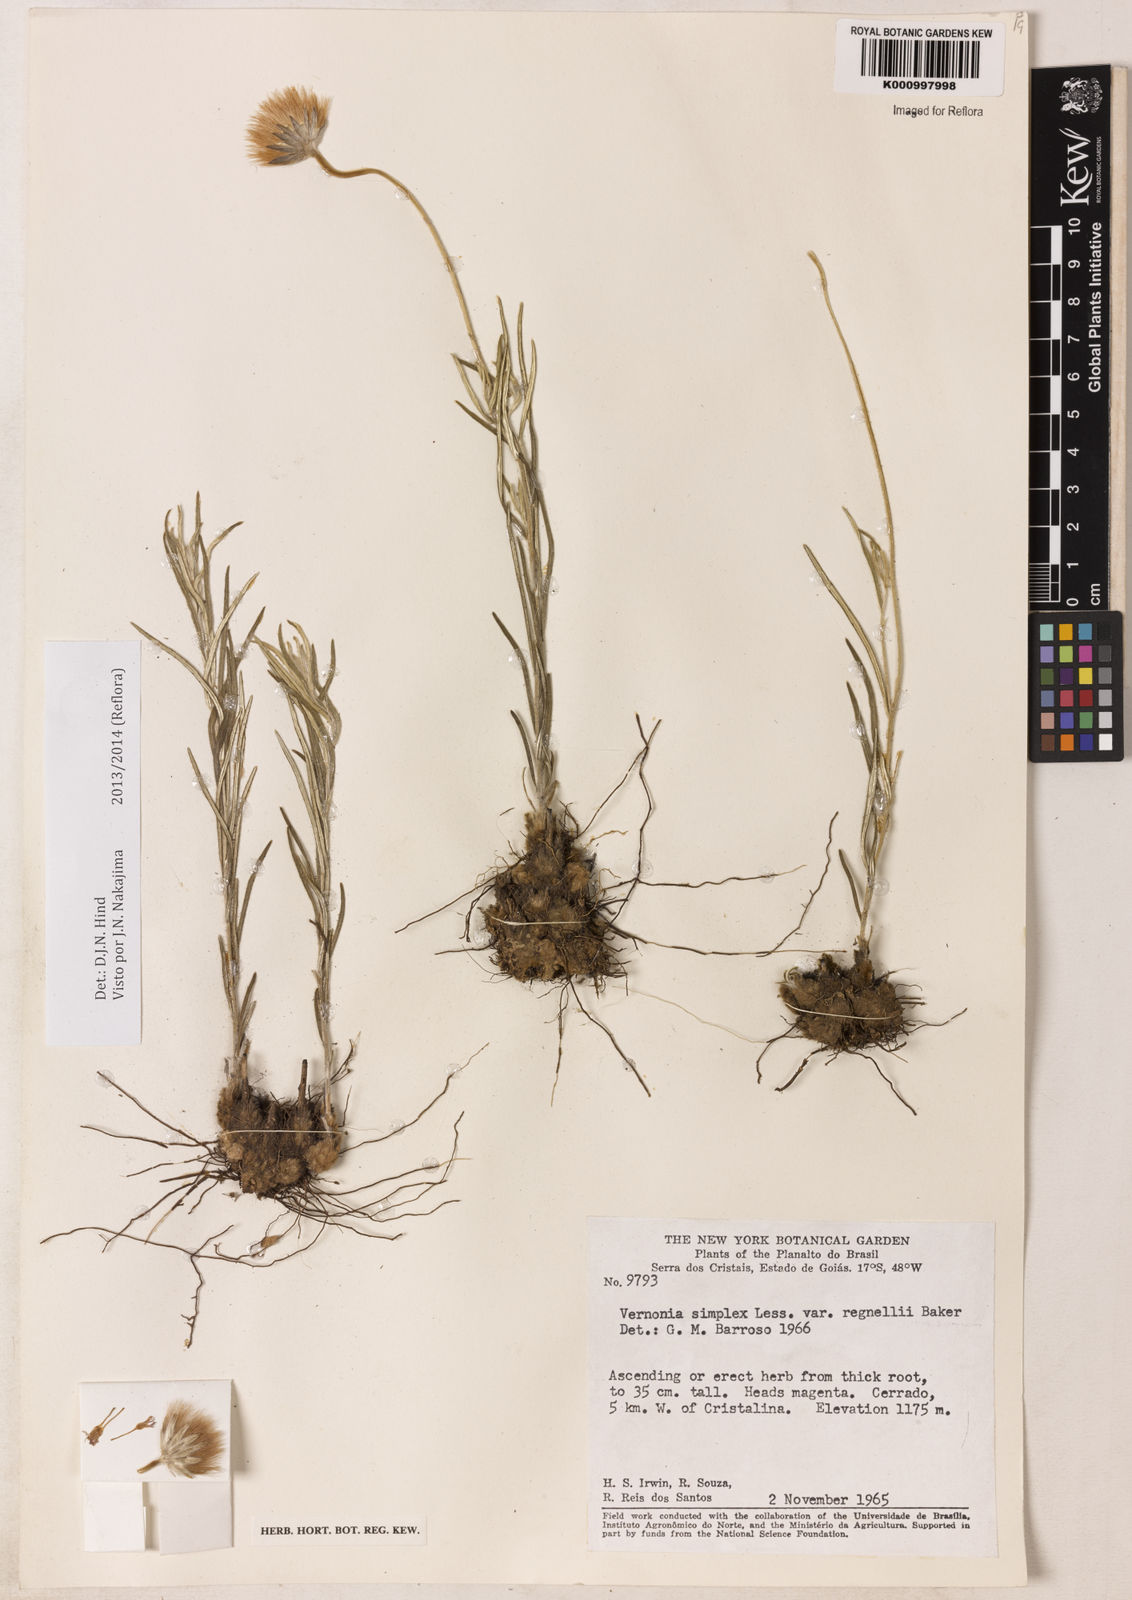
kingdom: Plantae
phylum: Tracheophyta
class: Magnoliopsida
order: Asterales
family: Asteraceae
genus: Chrysolaena
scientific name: Chrysolaena simplex
